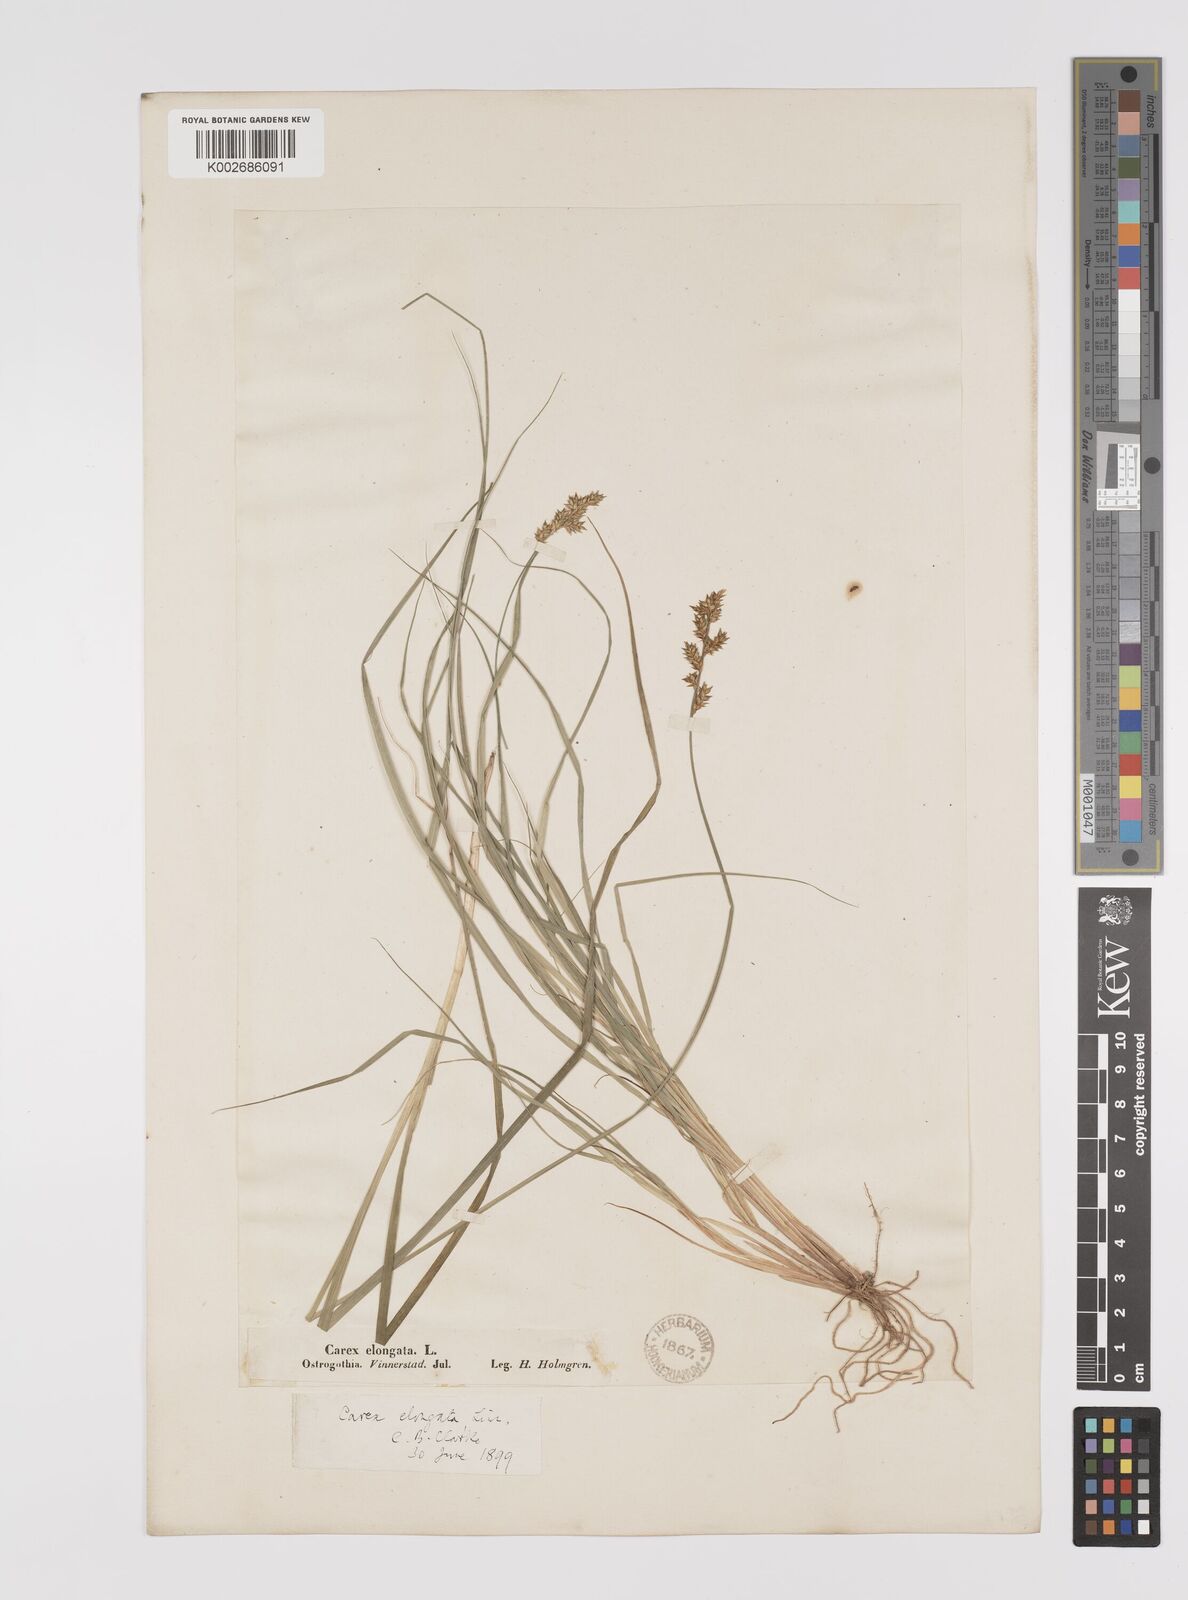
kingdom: Plantae
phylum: Tracheophyta
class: Liliopsida
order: Poales
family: Cyperaceae
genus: Carex
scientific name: Carex elongata
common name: Elongated sedge
